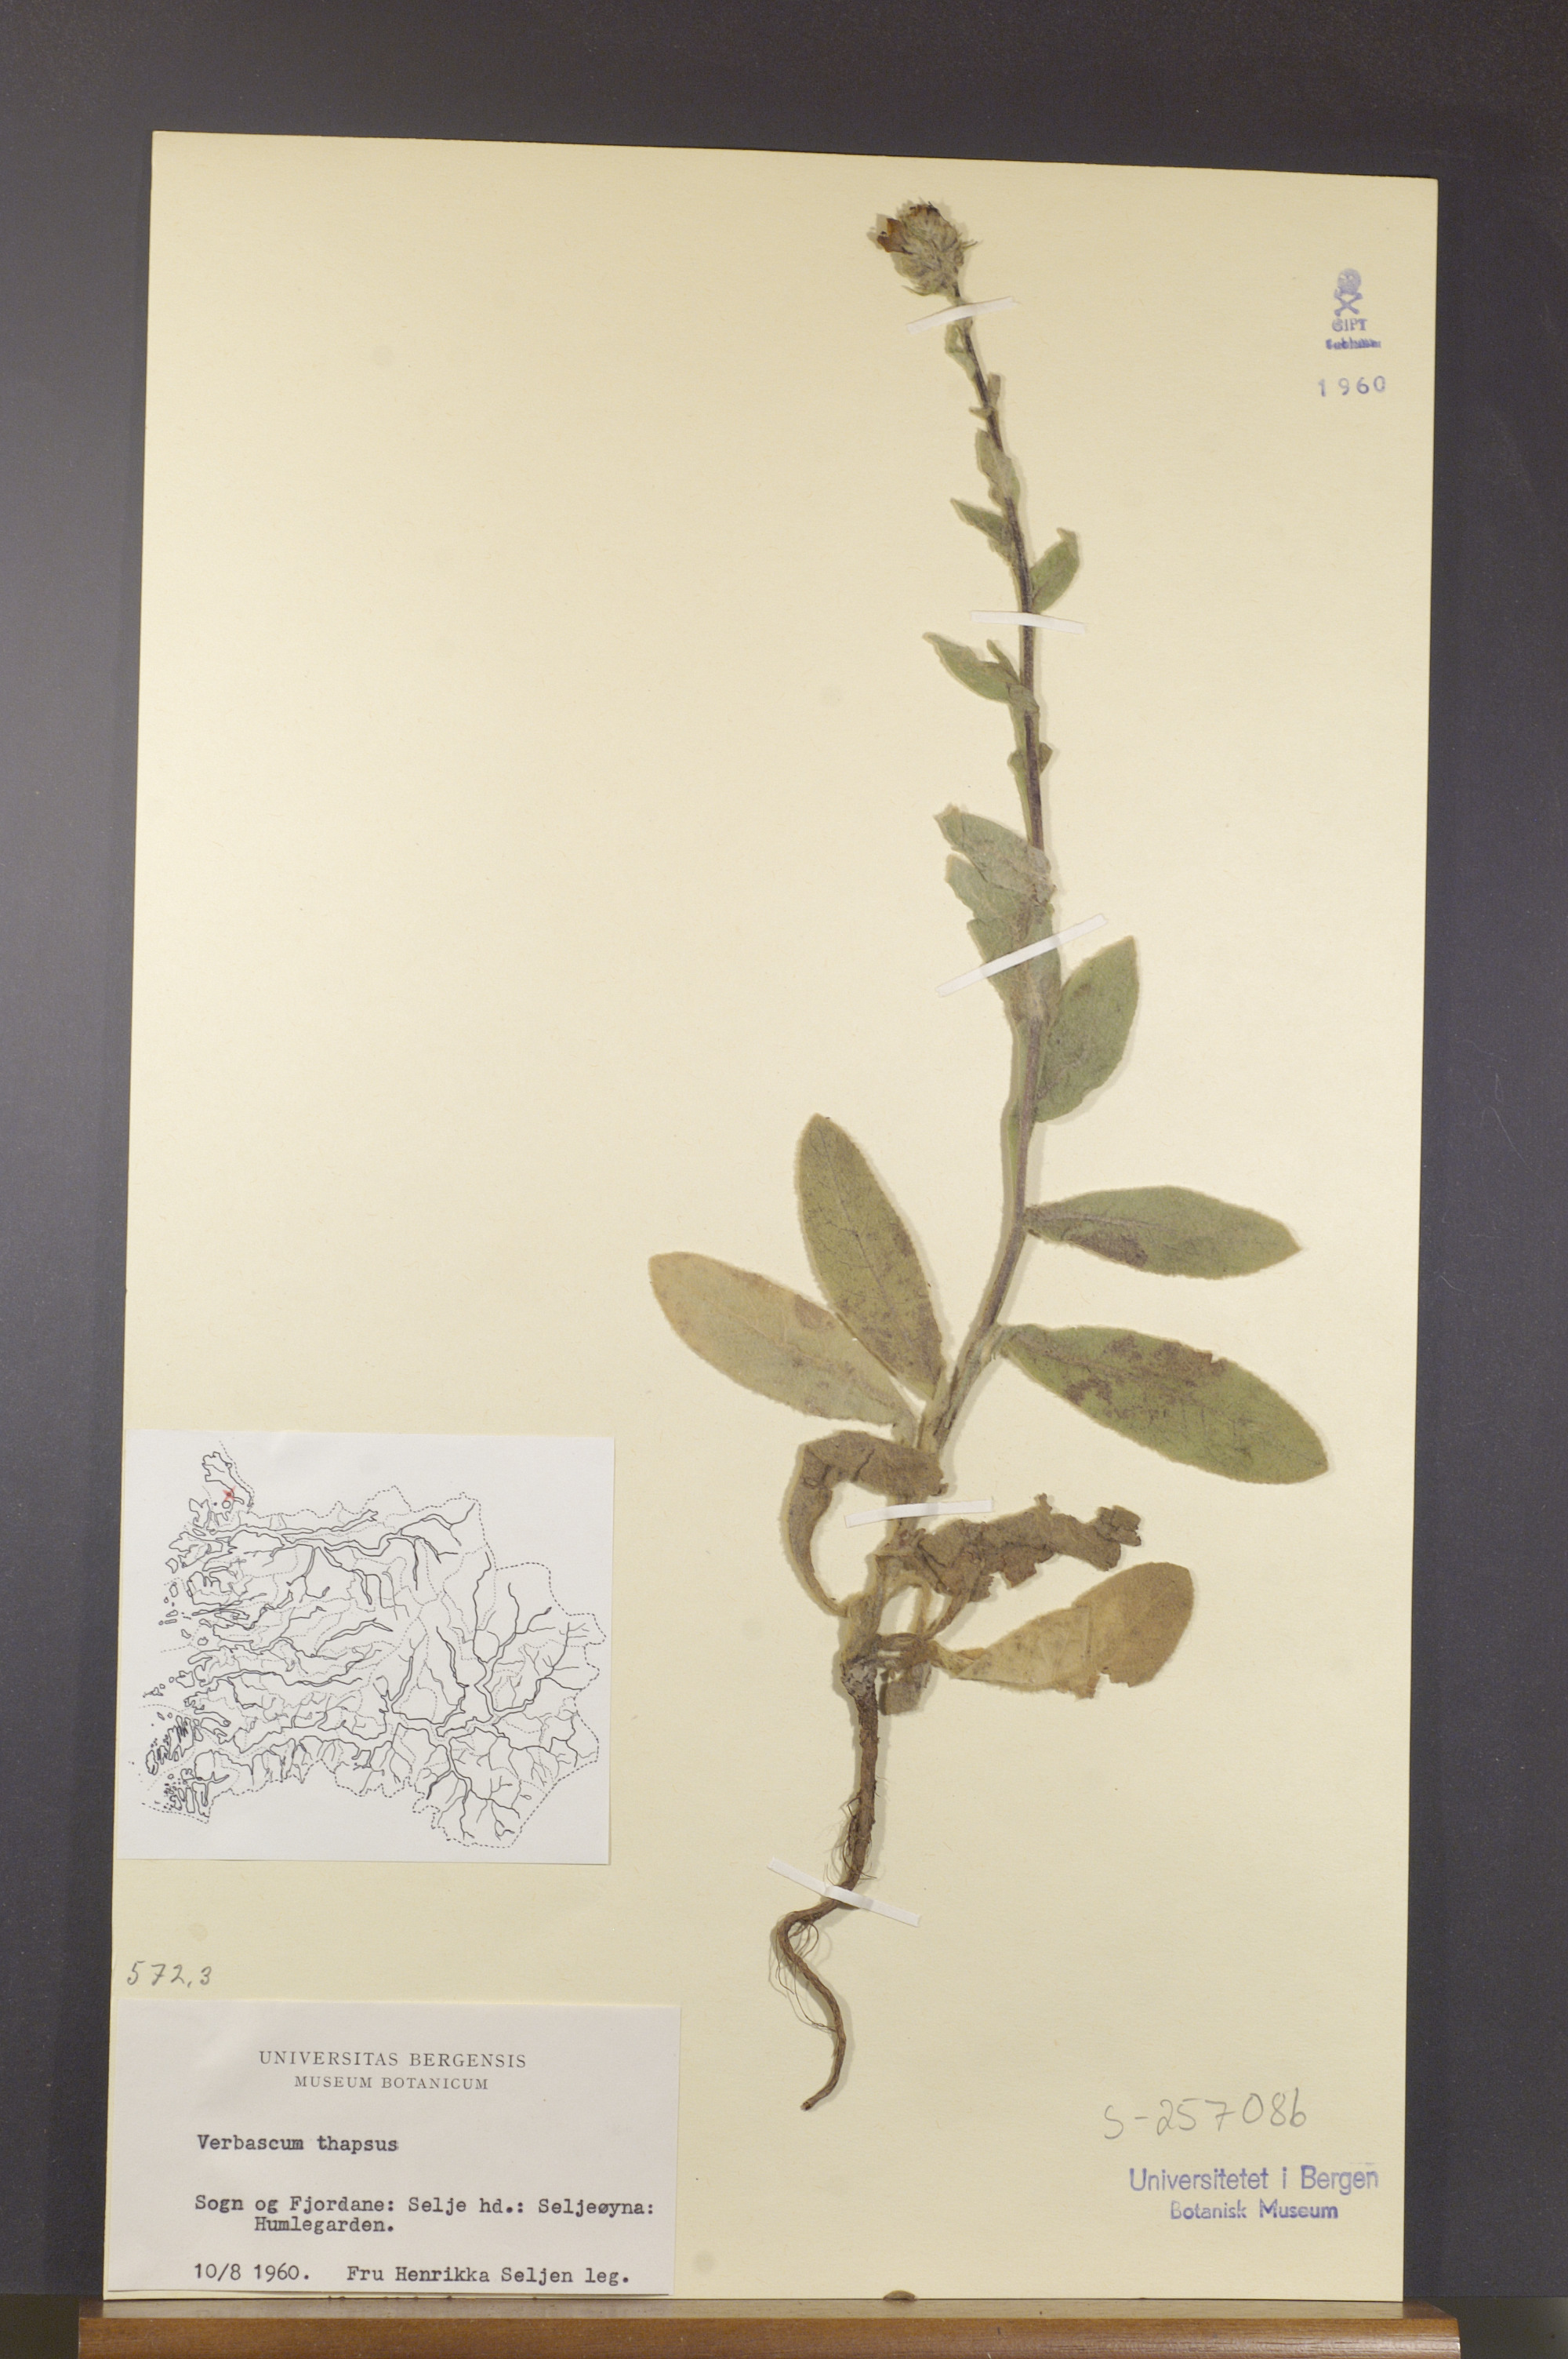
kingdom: Plantae
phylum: Tracheophyta
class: Magnoliopsida
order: Lamiales
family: Scrophulariaceae
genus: Verbascum
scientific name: Verbascum thapsus
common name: Common mullein
